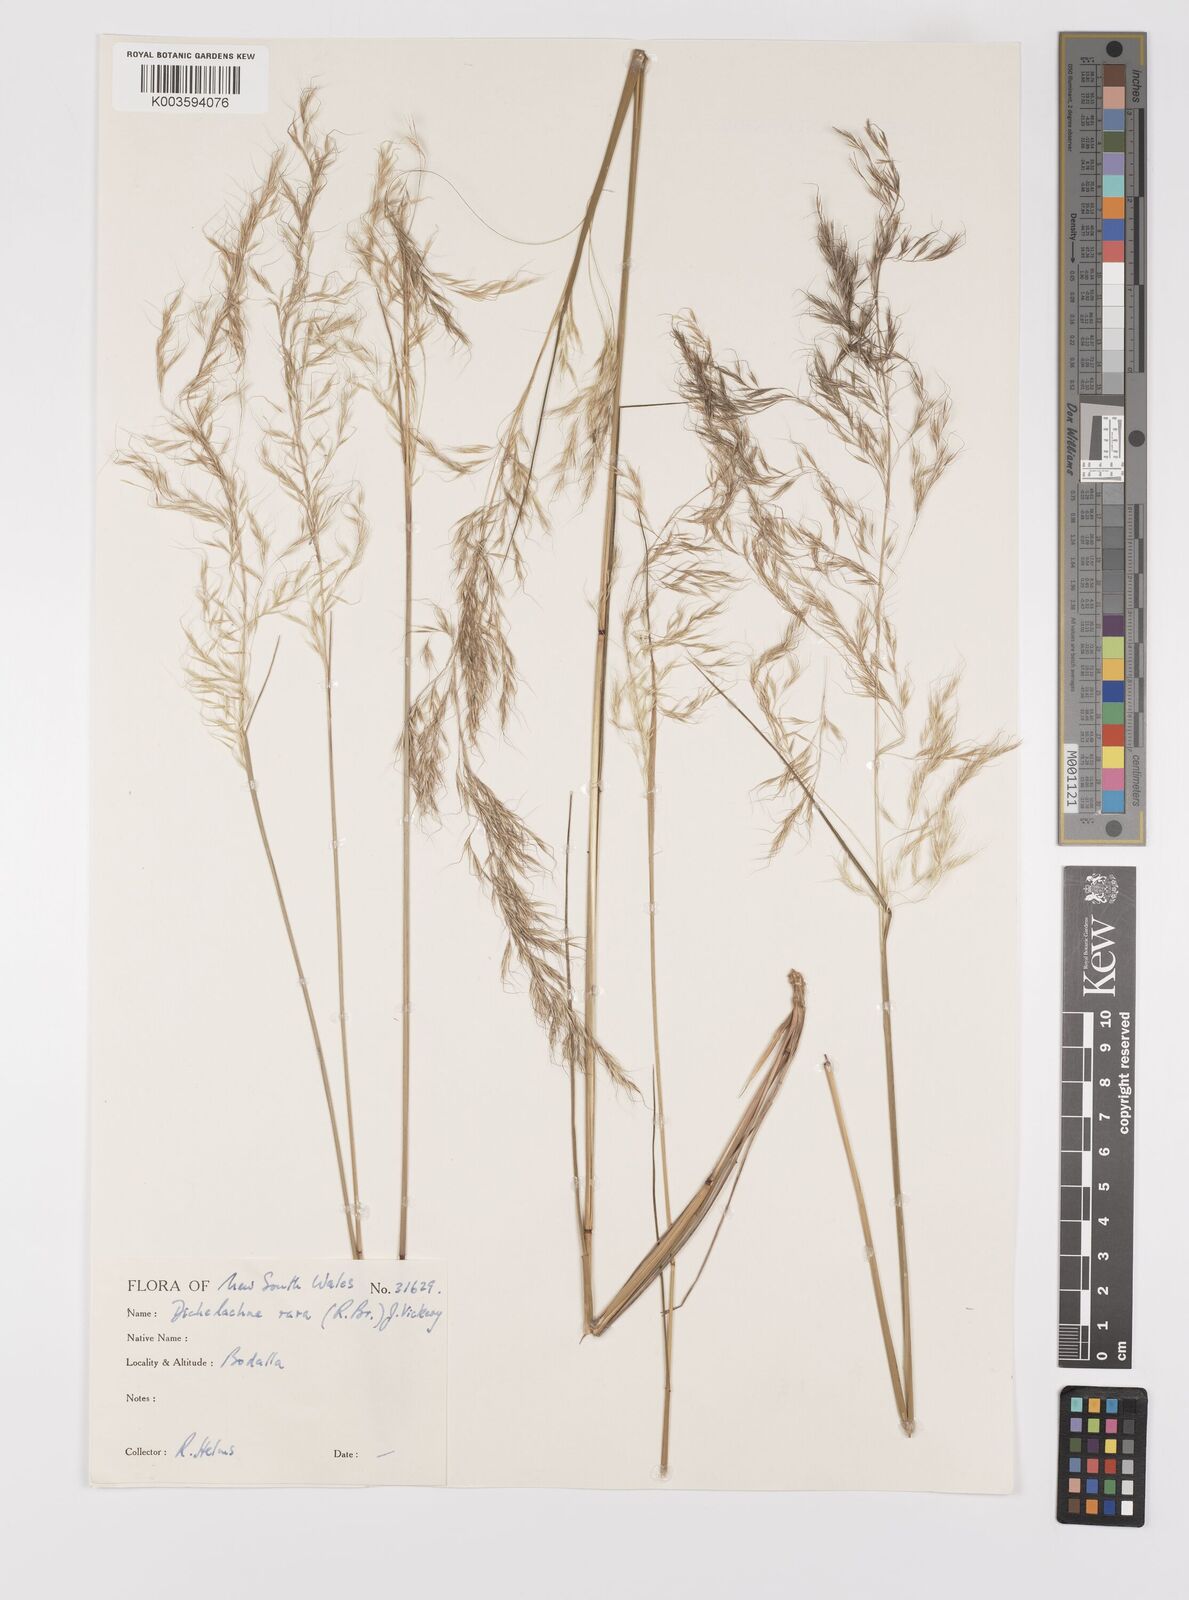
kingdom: Plantae
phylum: Tracheophyta
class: Liliopsida
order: Poales
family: Poaceae
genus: Dichelachne
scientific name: Dichelachne rara
